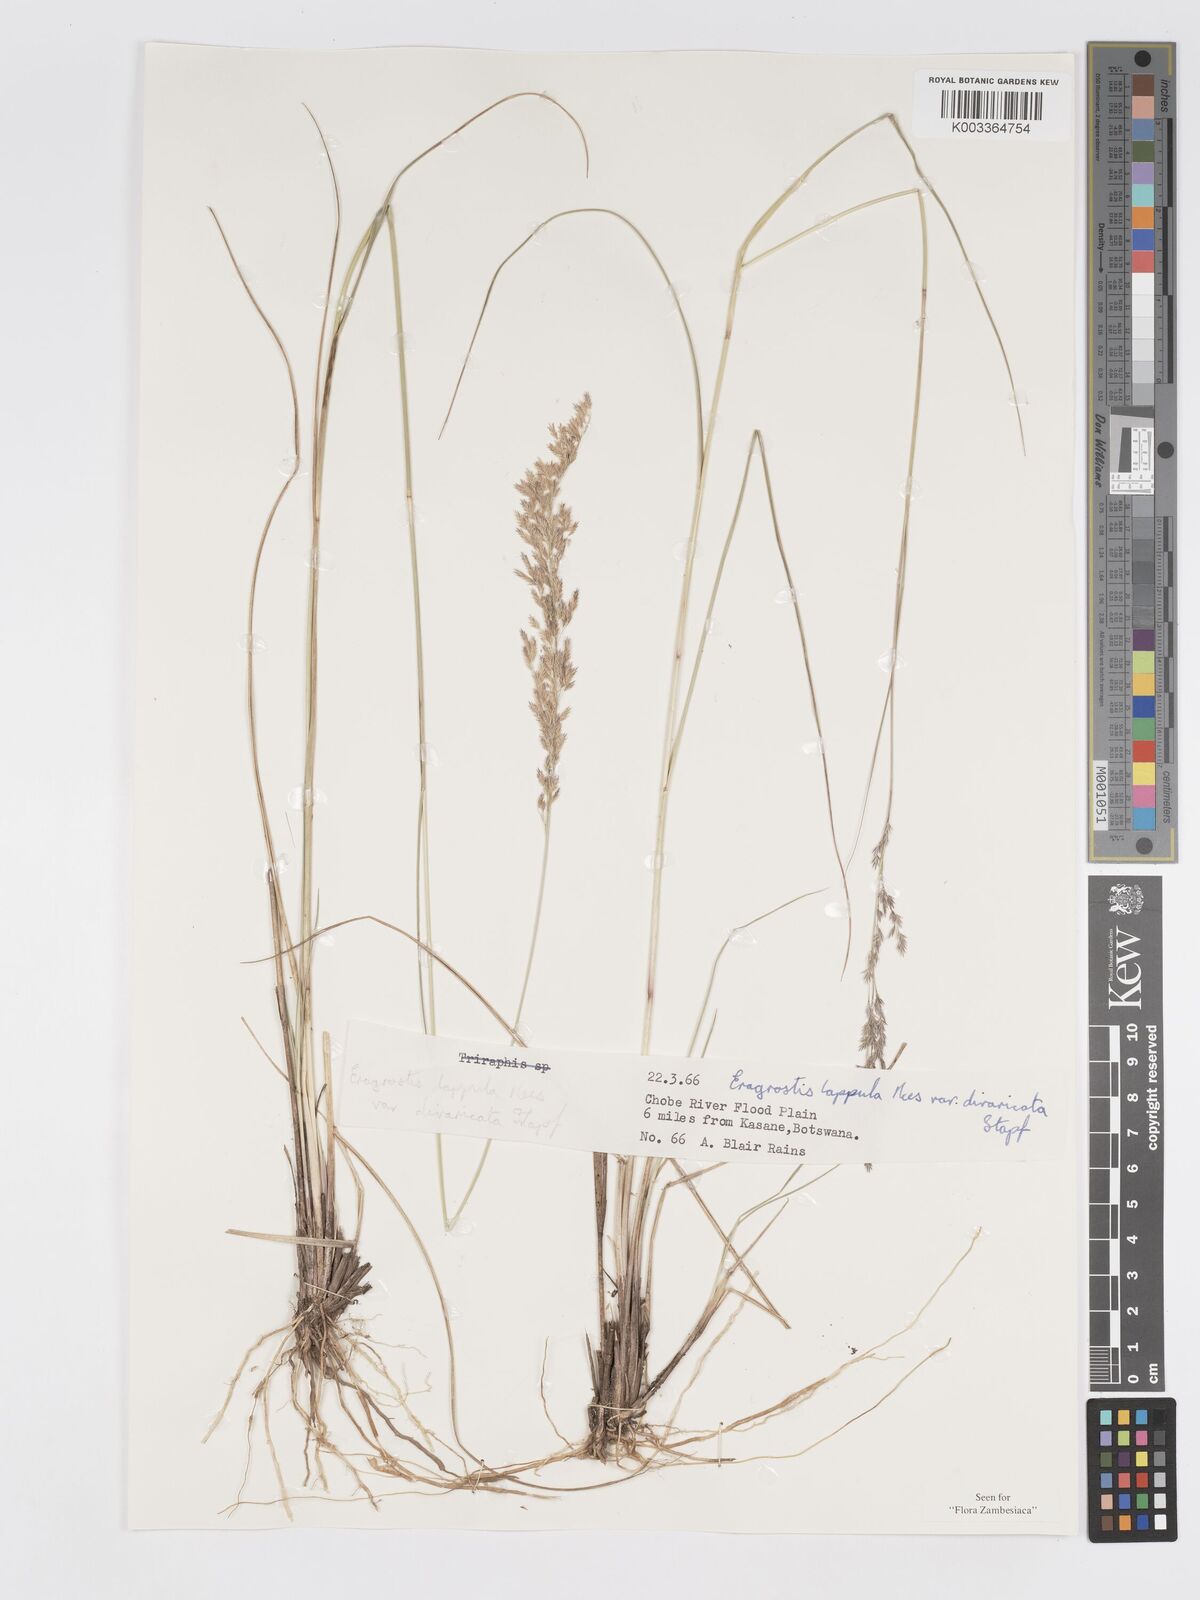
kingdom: Plantae
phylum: Tracheophyta
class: Liliopsida
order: Poales
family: Poaceae
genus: Eragrostis
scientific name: Eragrostis lappula
